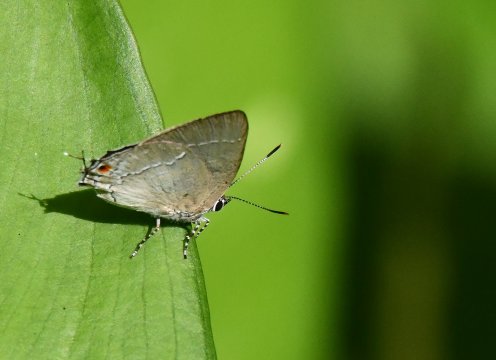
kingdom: Animalia
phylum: Arthropoda
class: Insecta
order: Lepidoptera
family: Lycaenidae
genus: Strephonota
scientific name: Strephonota tephraeus
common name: Pearly-Gray Hairstreak
